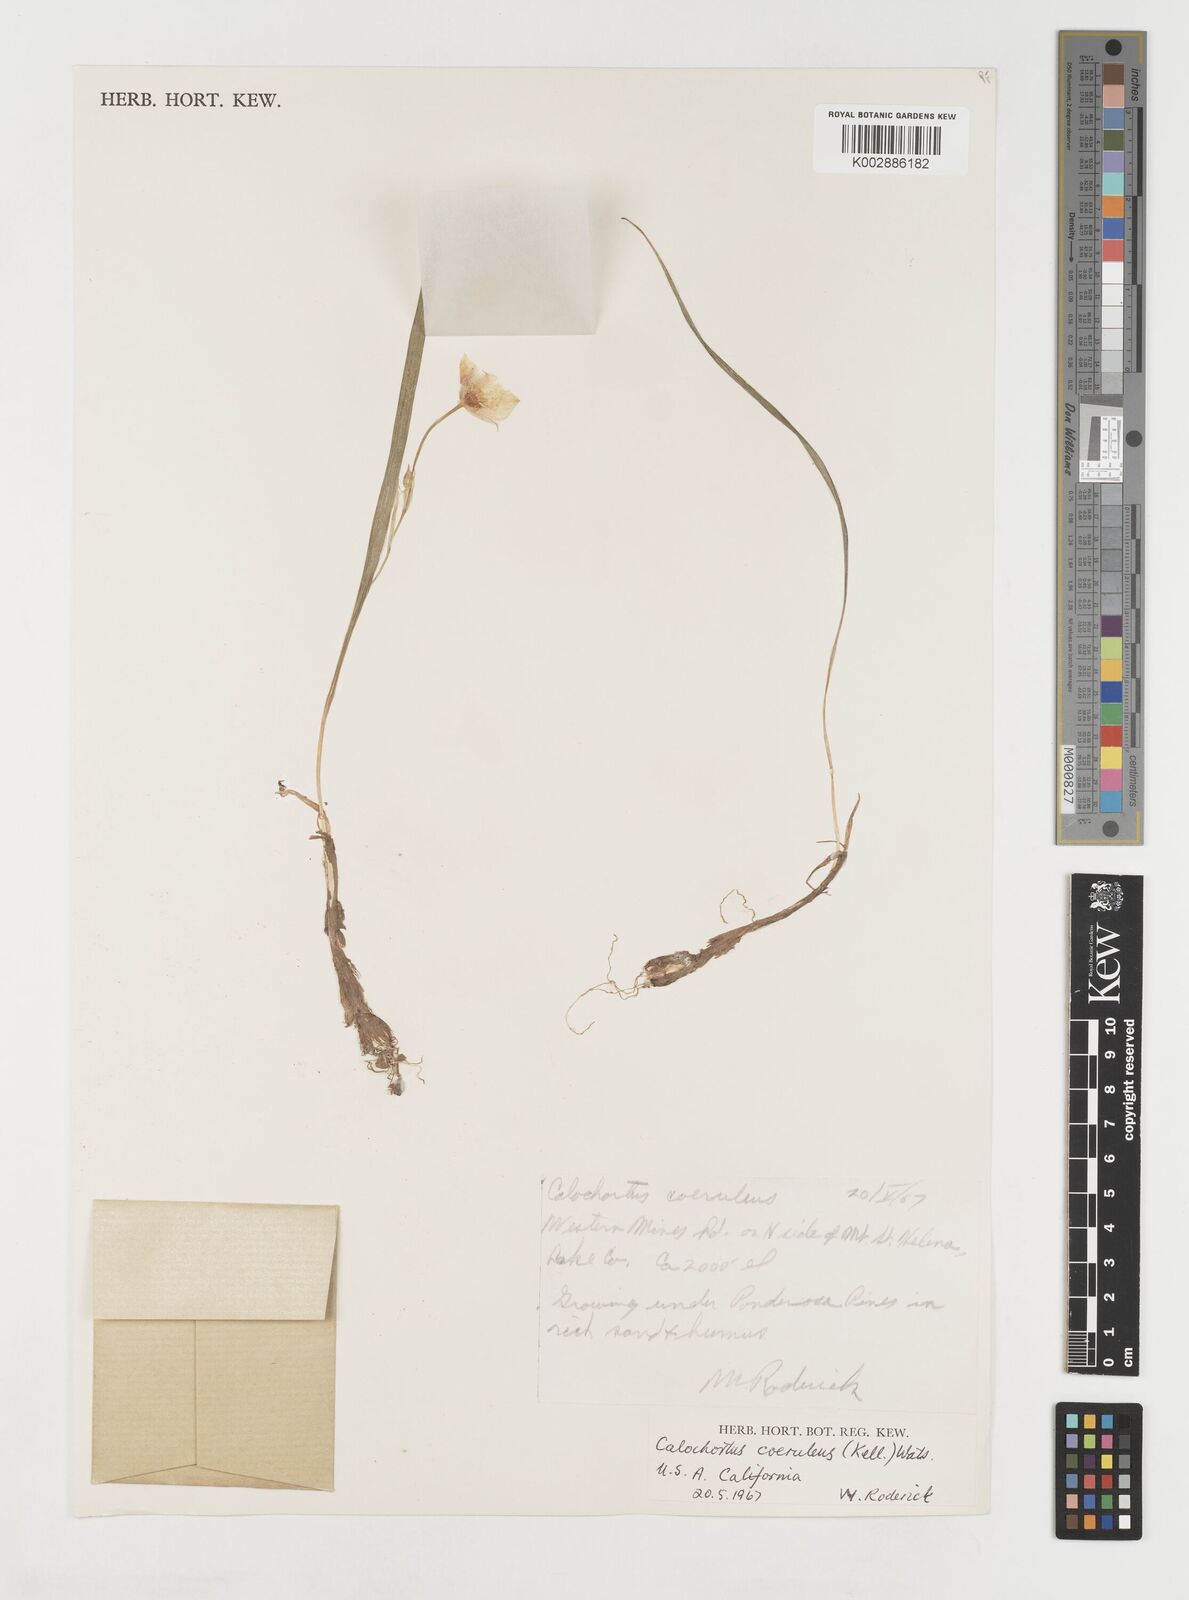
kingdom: Plantae
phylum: Tracheophyta
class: Liliopsida
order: Liliales
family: Liliaceae
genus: Calochortus
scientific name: Calochortus coeruleus
